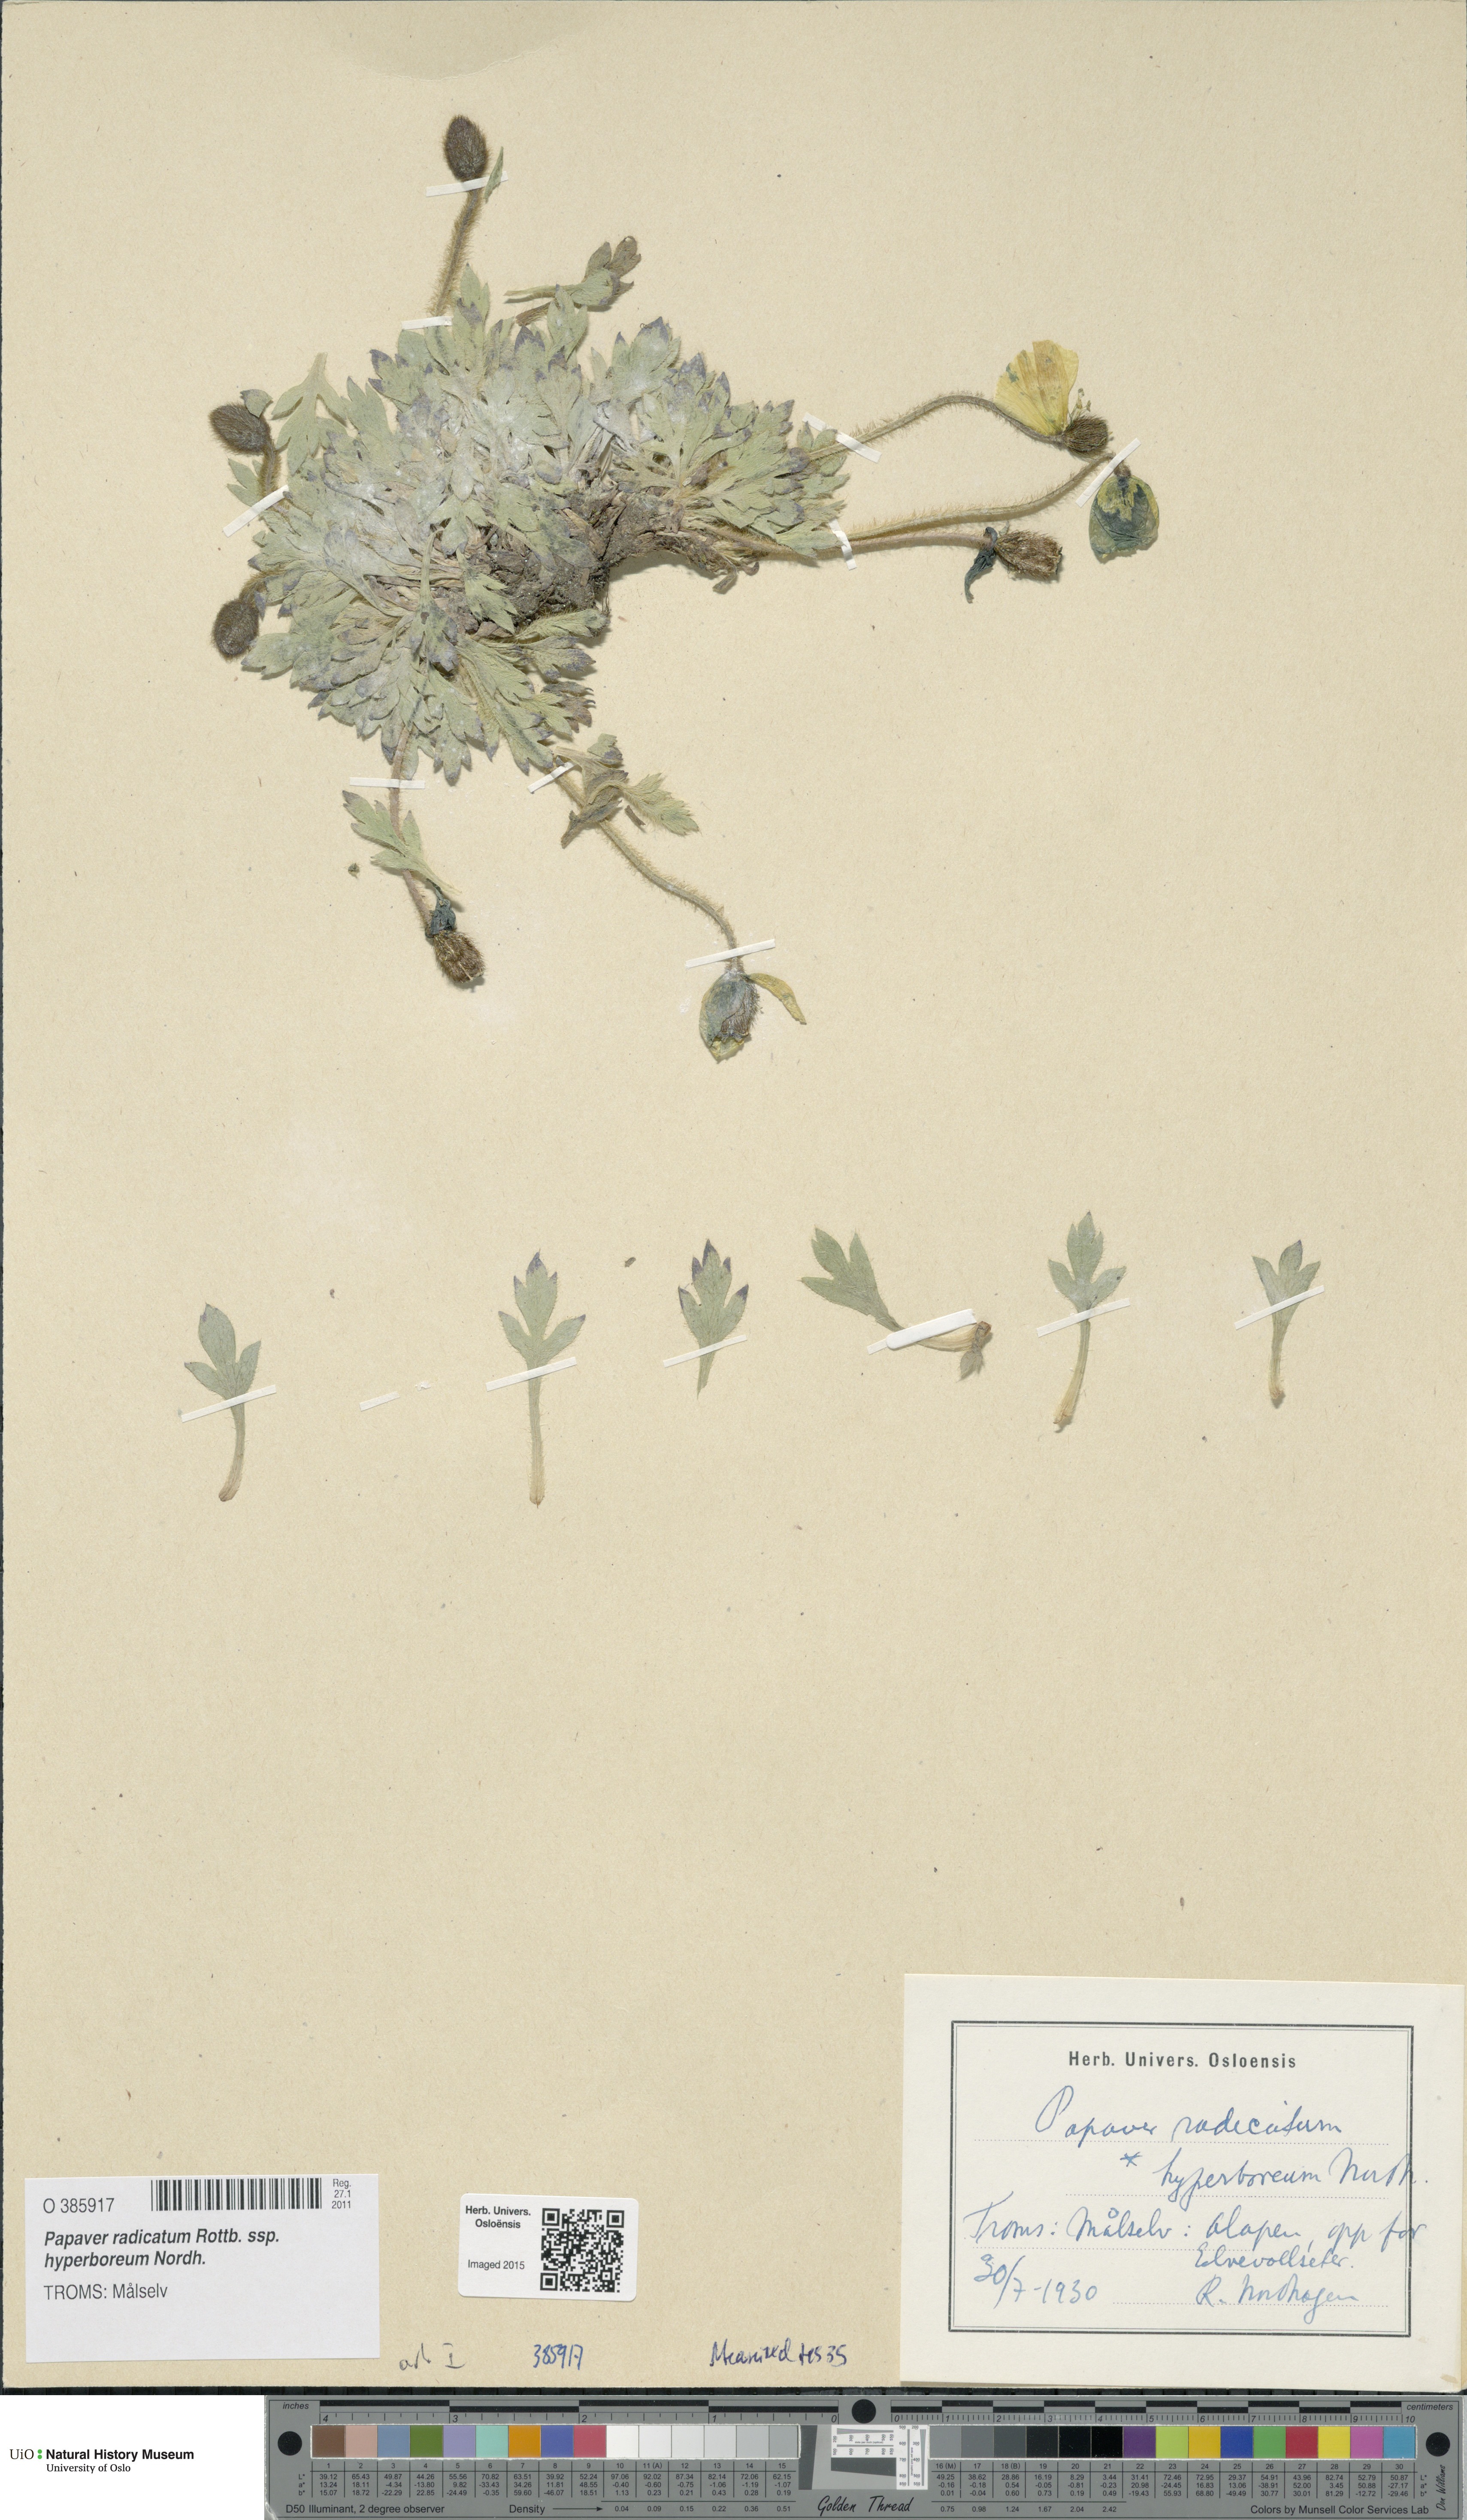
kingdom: Plantae
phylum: Tracheophyta
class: Magnoliopsida
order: Ranunculales
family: Papaveraceae
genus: Papaver
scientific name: Papaver radicatum
